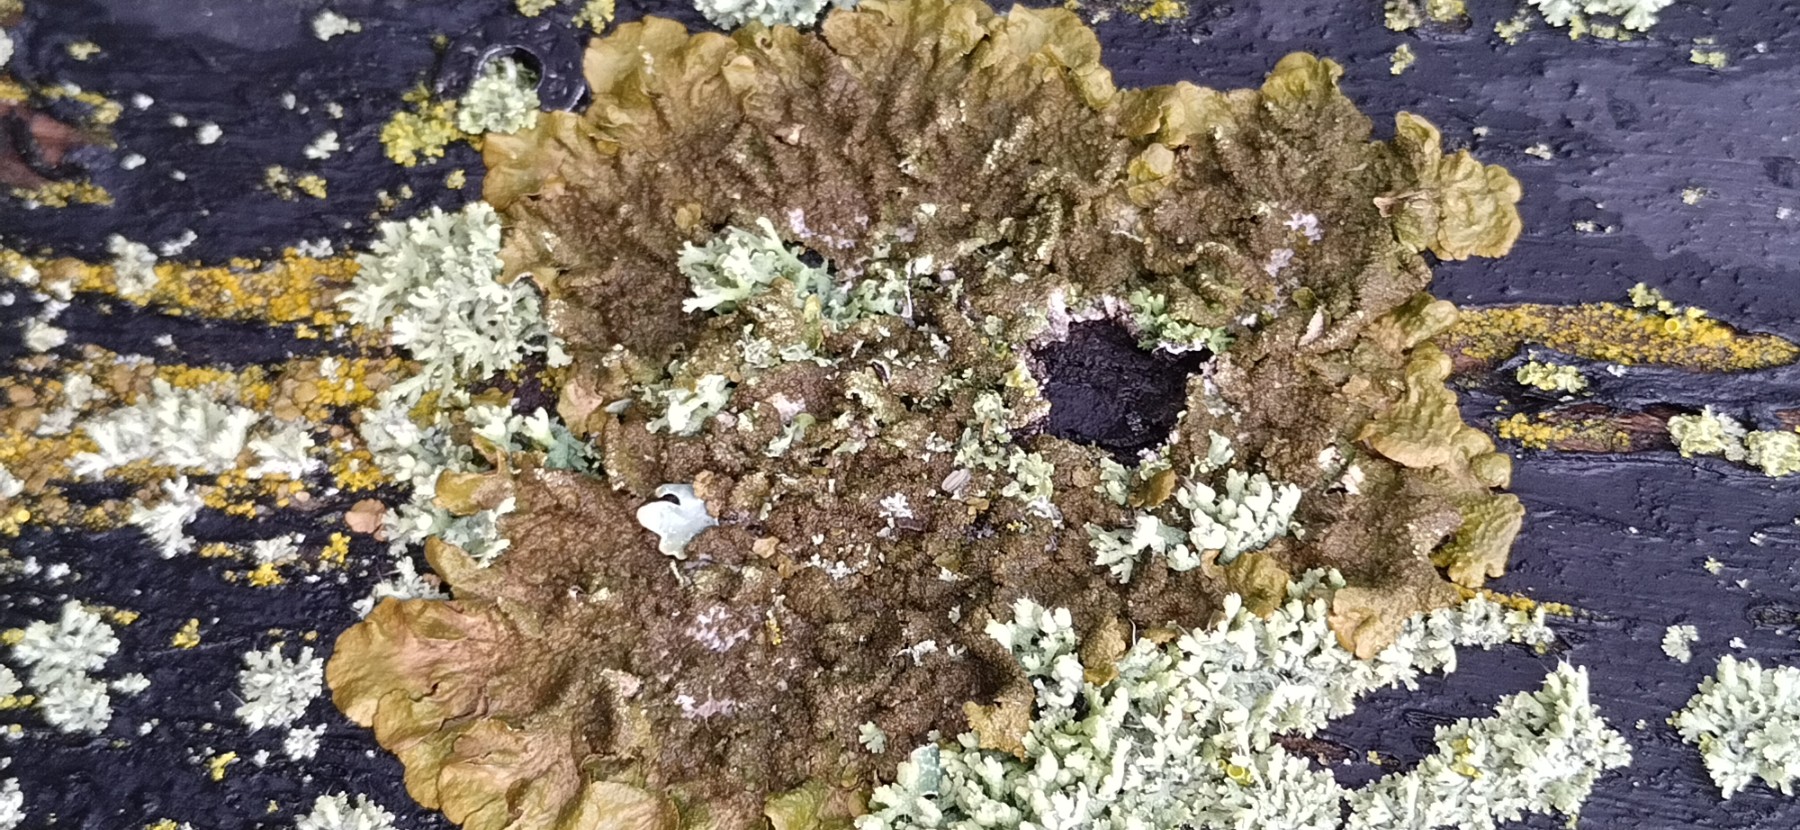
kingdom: Fungi
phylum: Ascomycota
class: Lecanoromycetes
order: Lecanorales
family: Parmeliaceae
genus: Melanelixia
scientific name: Melanelixia subaurifera
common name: guldpudret skållav
